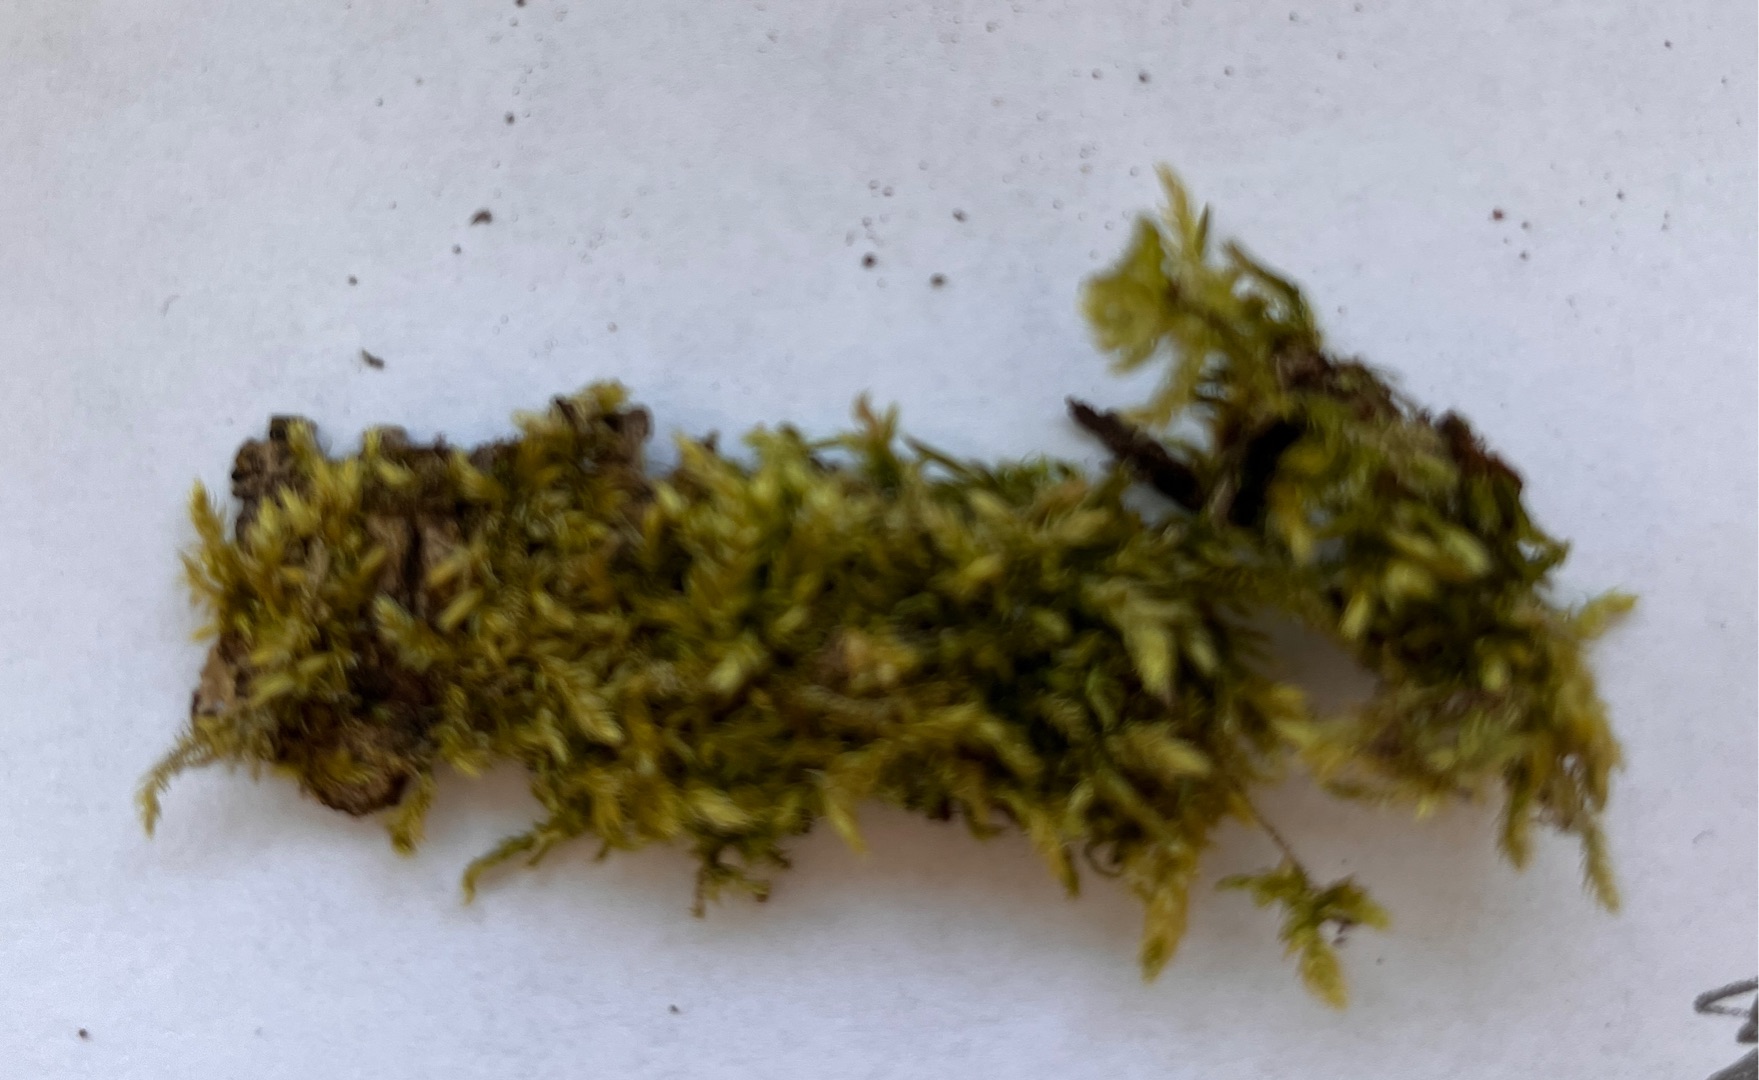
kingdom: Plantae
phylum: Bryophyta
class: Bryopsida
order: Hypnales
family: Brachytheciaceae
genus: Brachythecium
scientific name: Brachythecium rutabulum
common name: Almindelig kortkapsel
